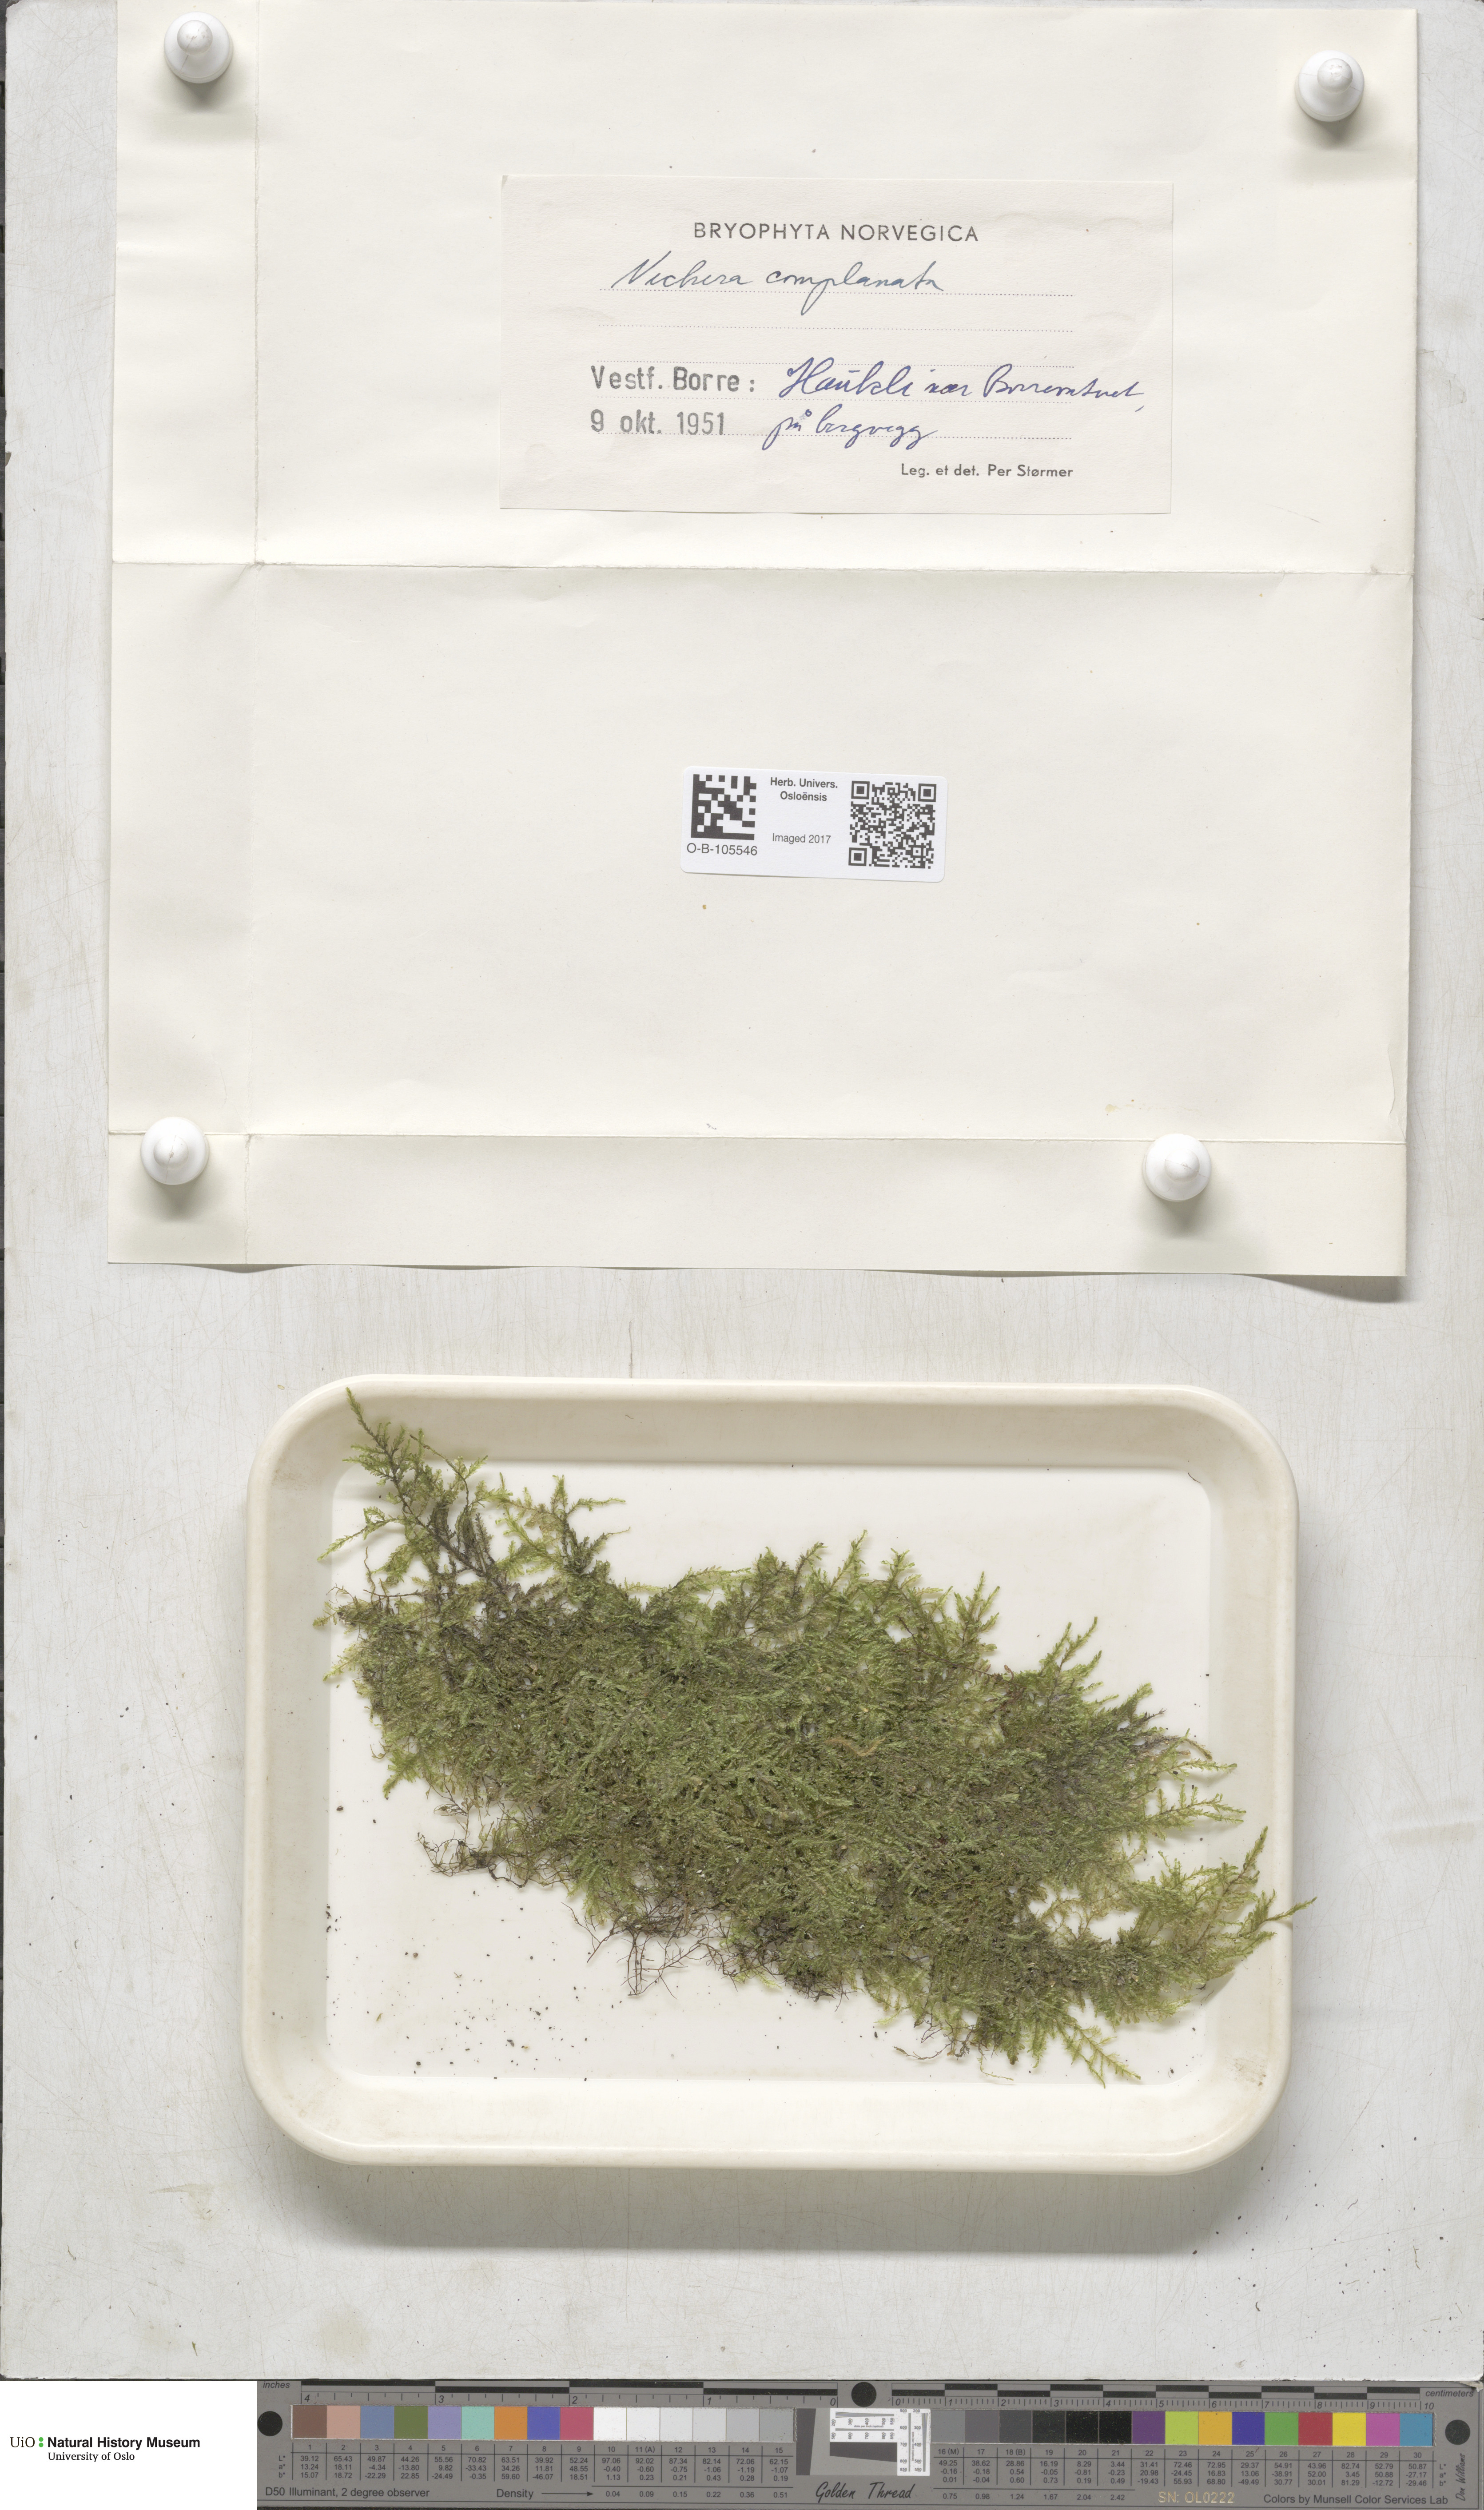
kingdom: Plantae
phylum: Bryophyta
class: Bryopsida
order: Hypnales
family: Neckeraceae
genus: Alleniella
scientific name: Alleniella complanata
